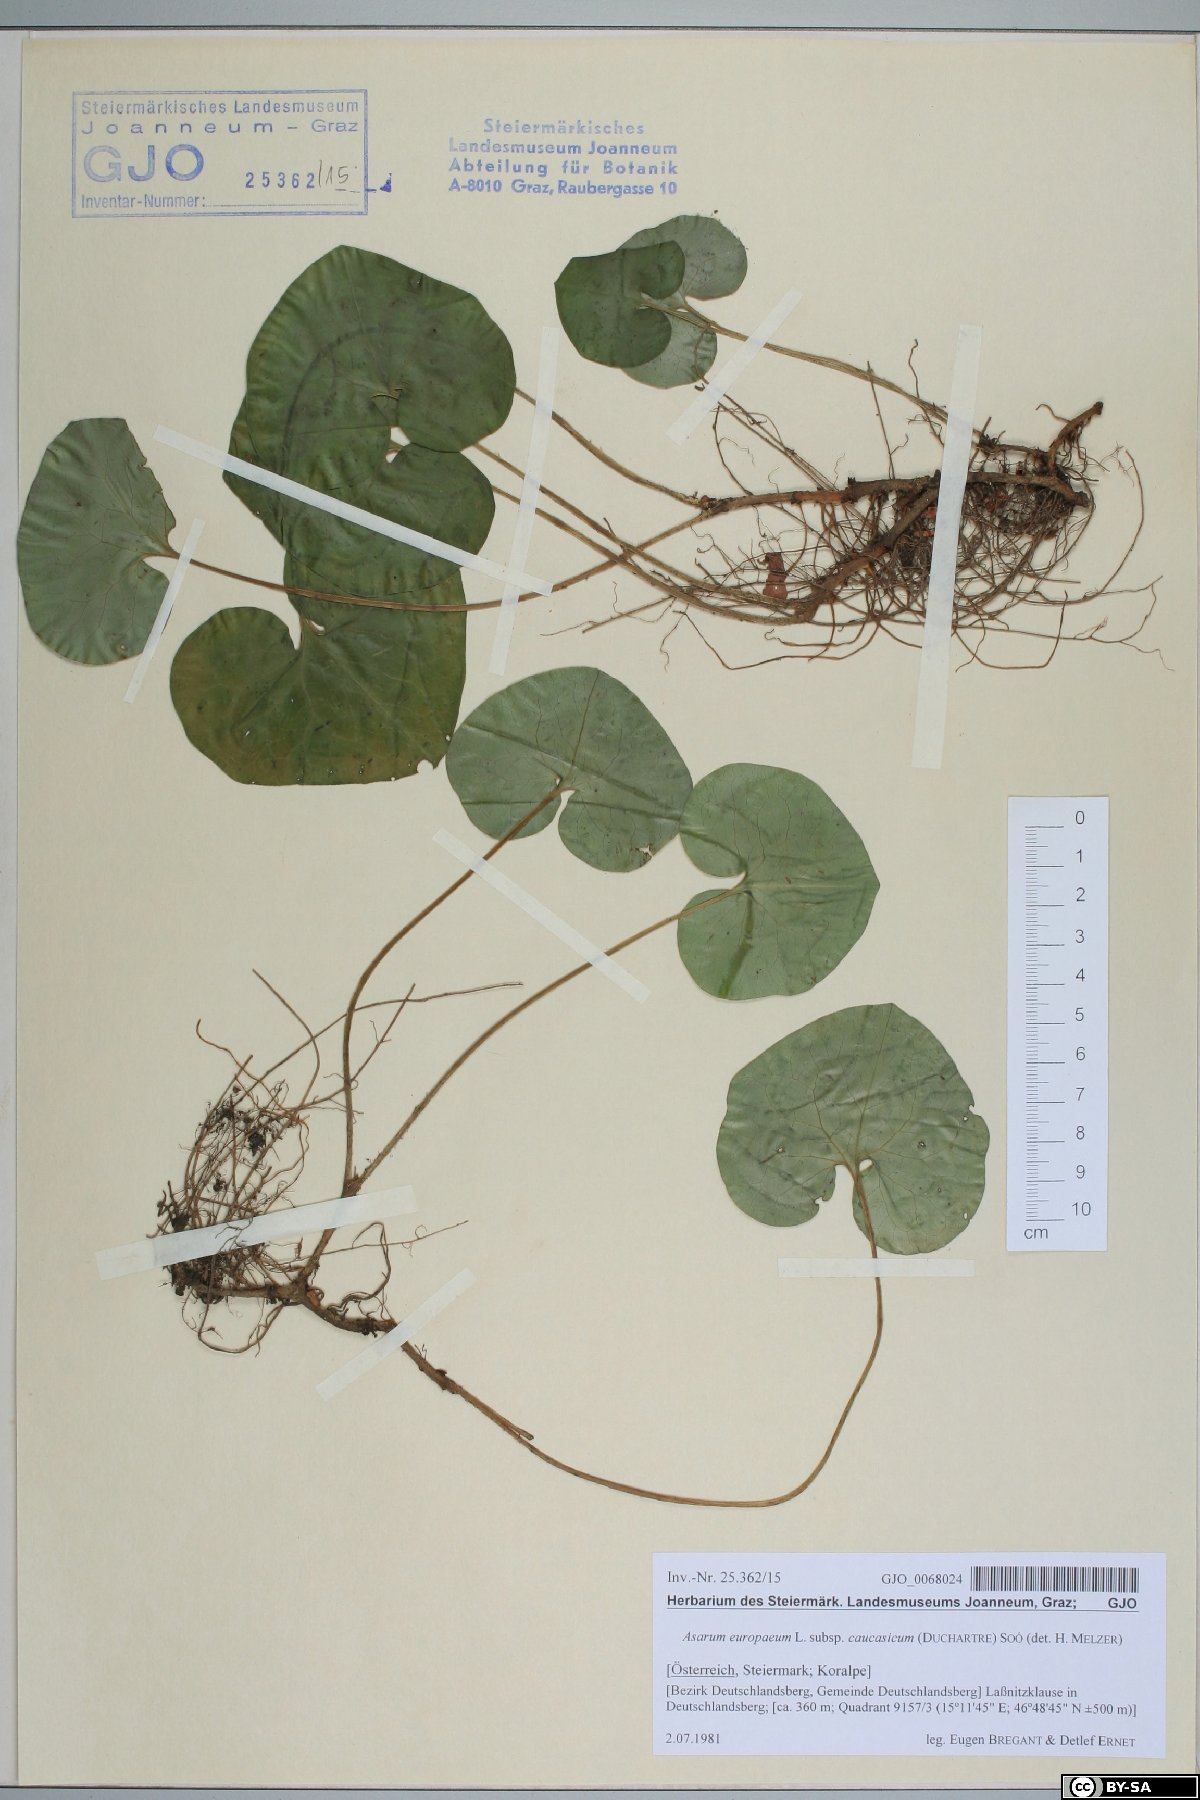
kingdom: Plantae
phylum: Tracheophyta
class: Magnoliopsida
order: Piperales
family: Aristolochiaceae
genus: Asarum
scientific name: Asarum europaeum
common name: Asarabacca
